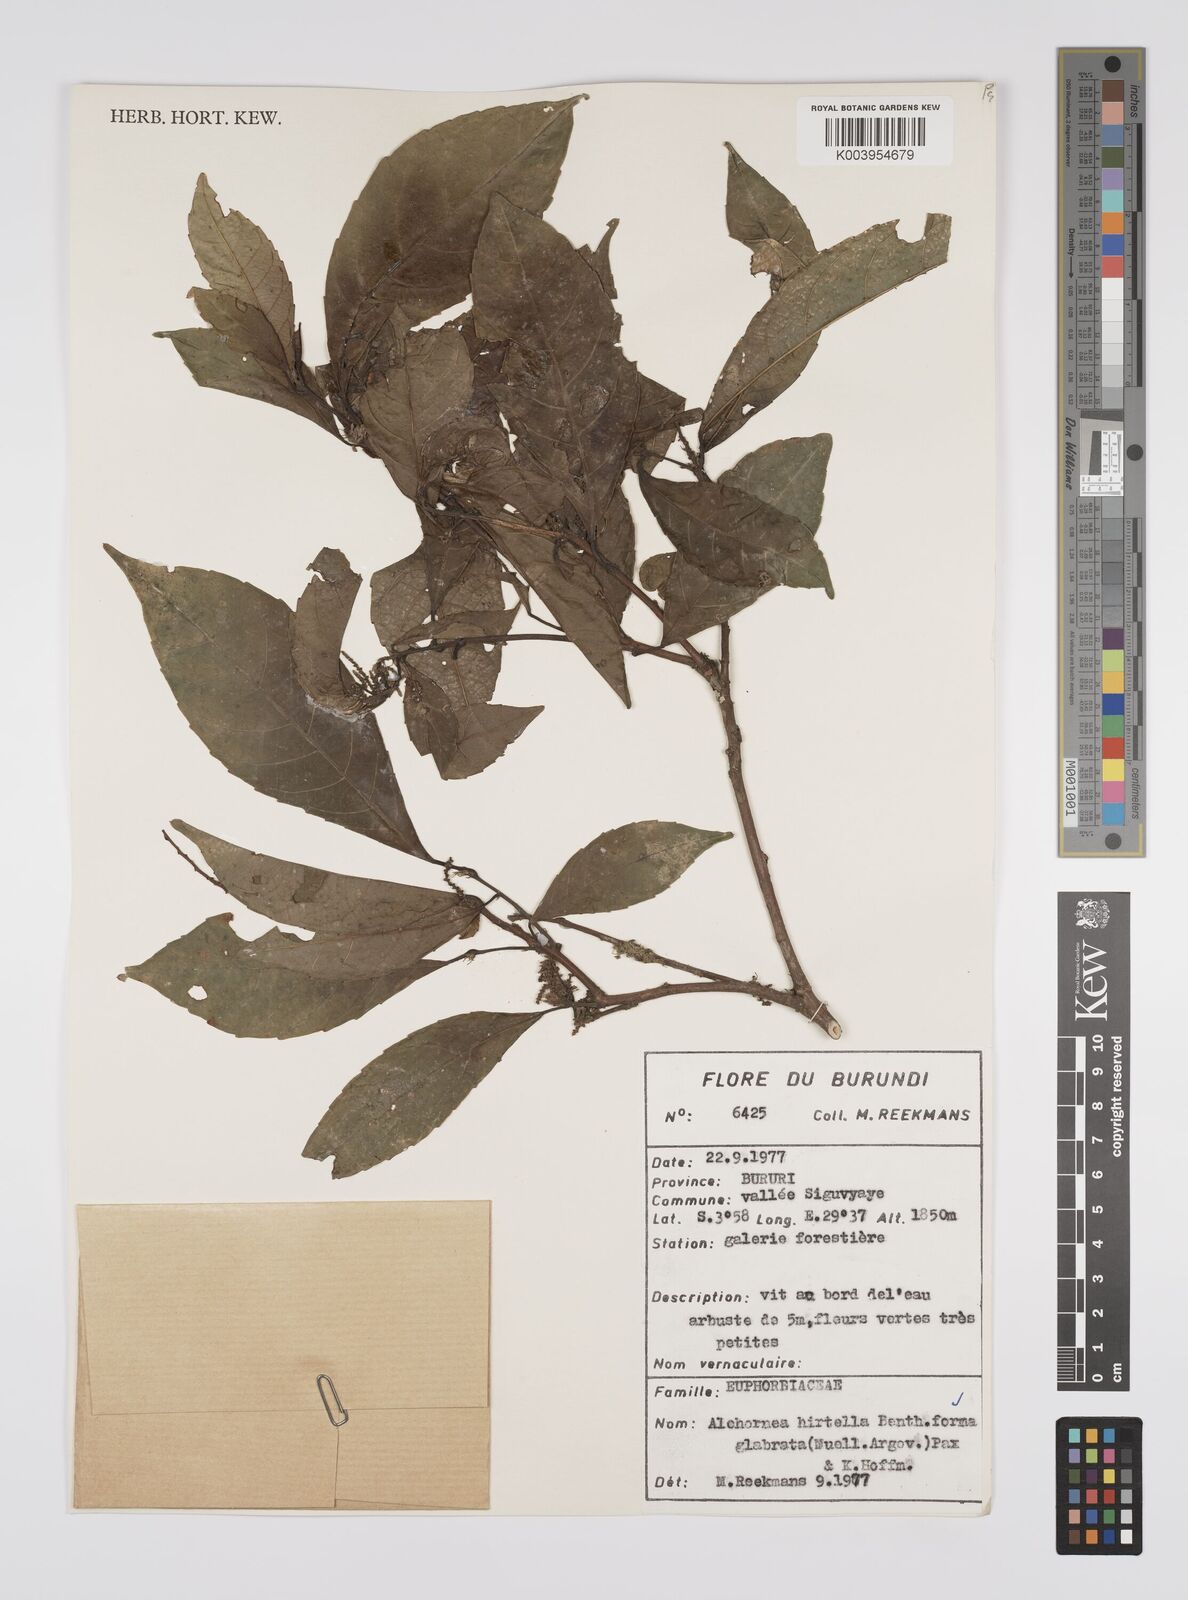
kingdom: Plantae
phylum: Tracheophyta
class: Magnoliopsida
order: Malpighiales
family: Euphorbiaceae
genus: Alchornea
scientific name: Alchornea hirtella
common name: Forest bead-string
